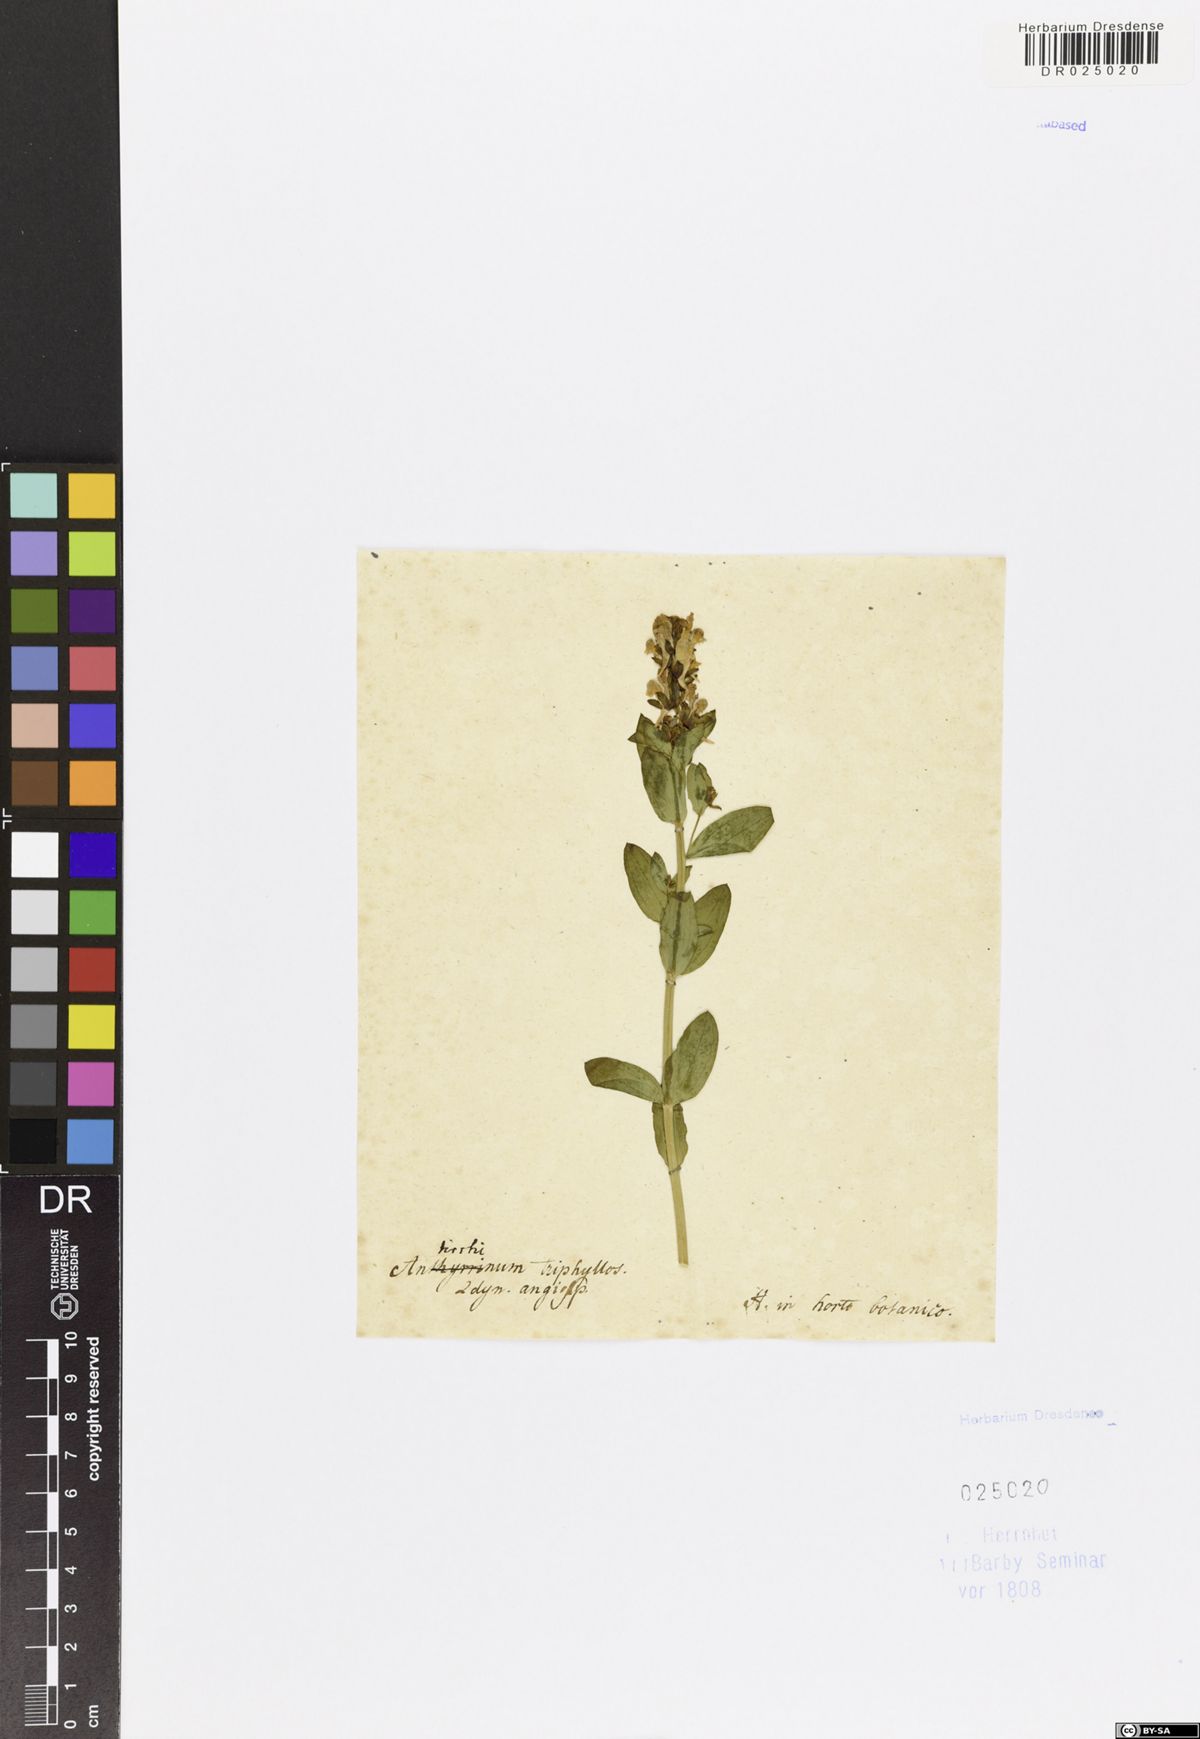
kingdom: Plantae
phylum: Tracheophyta
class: Magnoliopsida
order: Lamiales
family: Plantaginaceae
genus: Linaria
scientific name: Linaria triphylla
